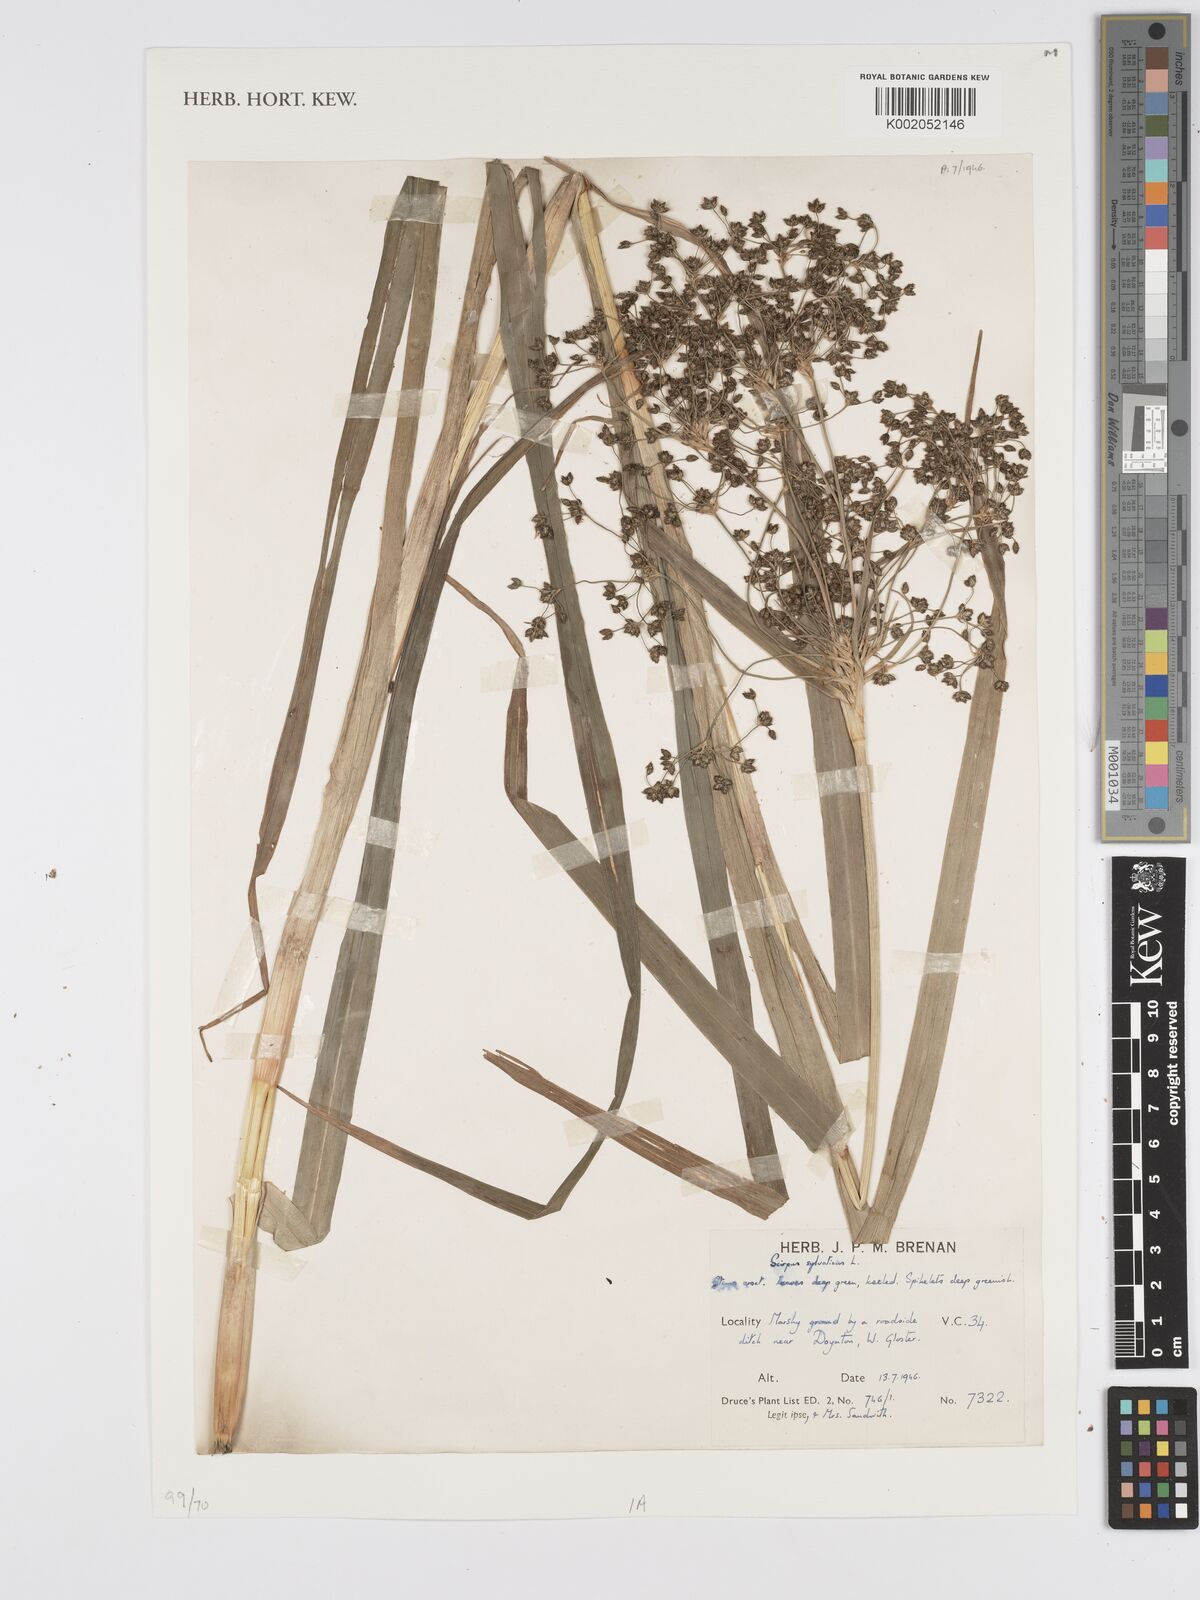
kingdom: Plantae
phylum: Tracheophyta
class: Liliopsida
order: Poales
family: Cyperaceae
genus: Scirpus
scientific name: Scirpus sylvaticus
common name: Wood club-rush
